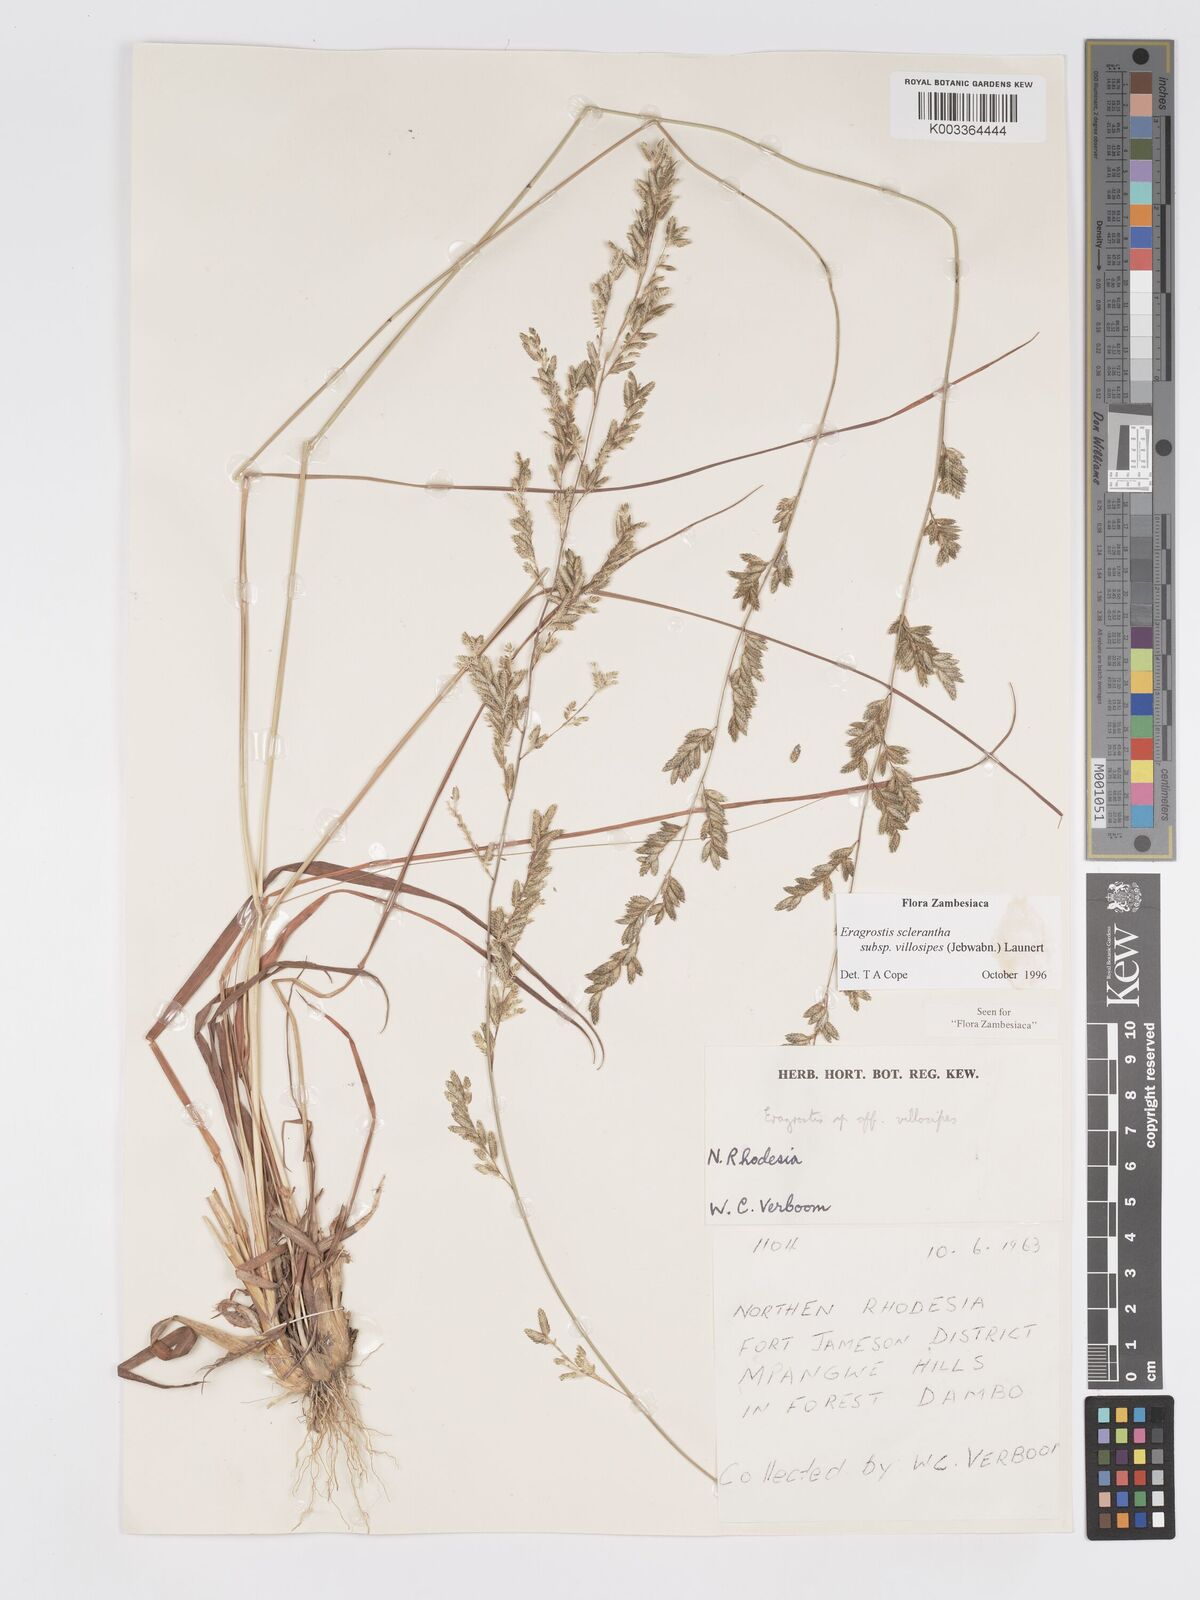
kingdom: Plantae
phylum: Tracheophyta
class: Liliopsida
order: Poales
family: Poaceae
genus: Eragrostis
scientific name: Eragrostis sclerantha
